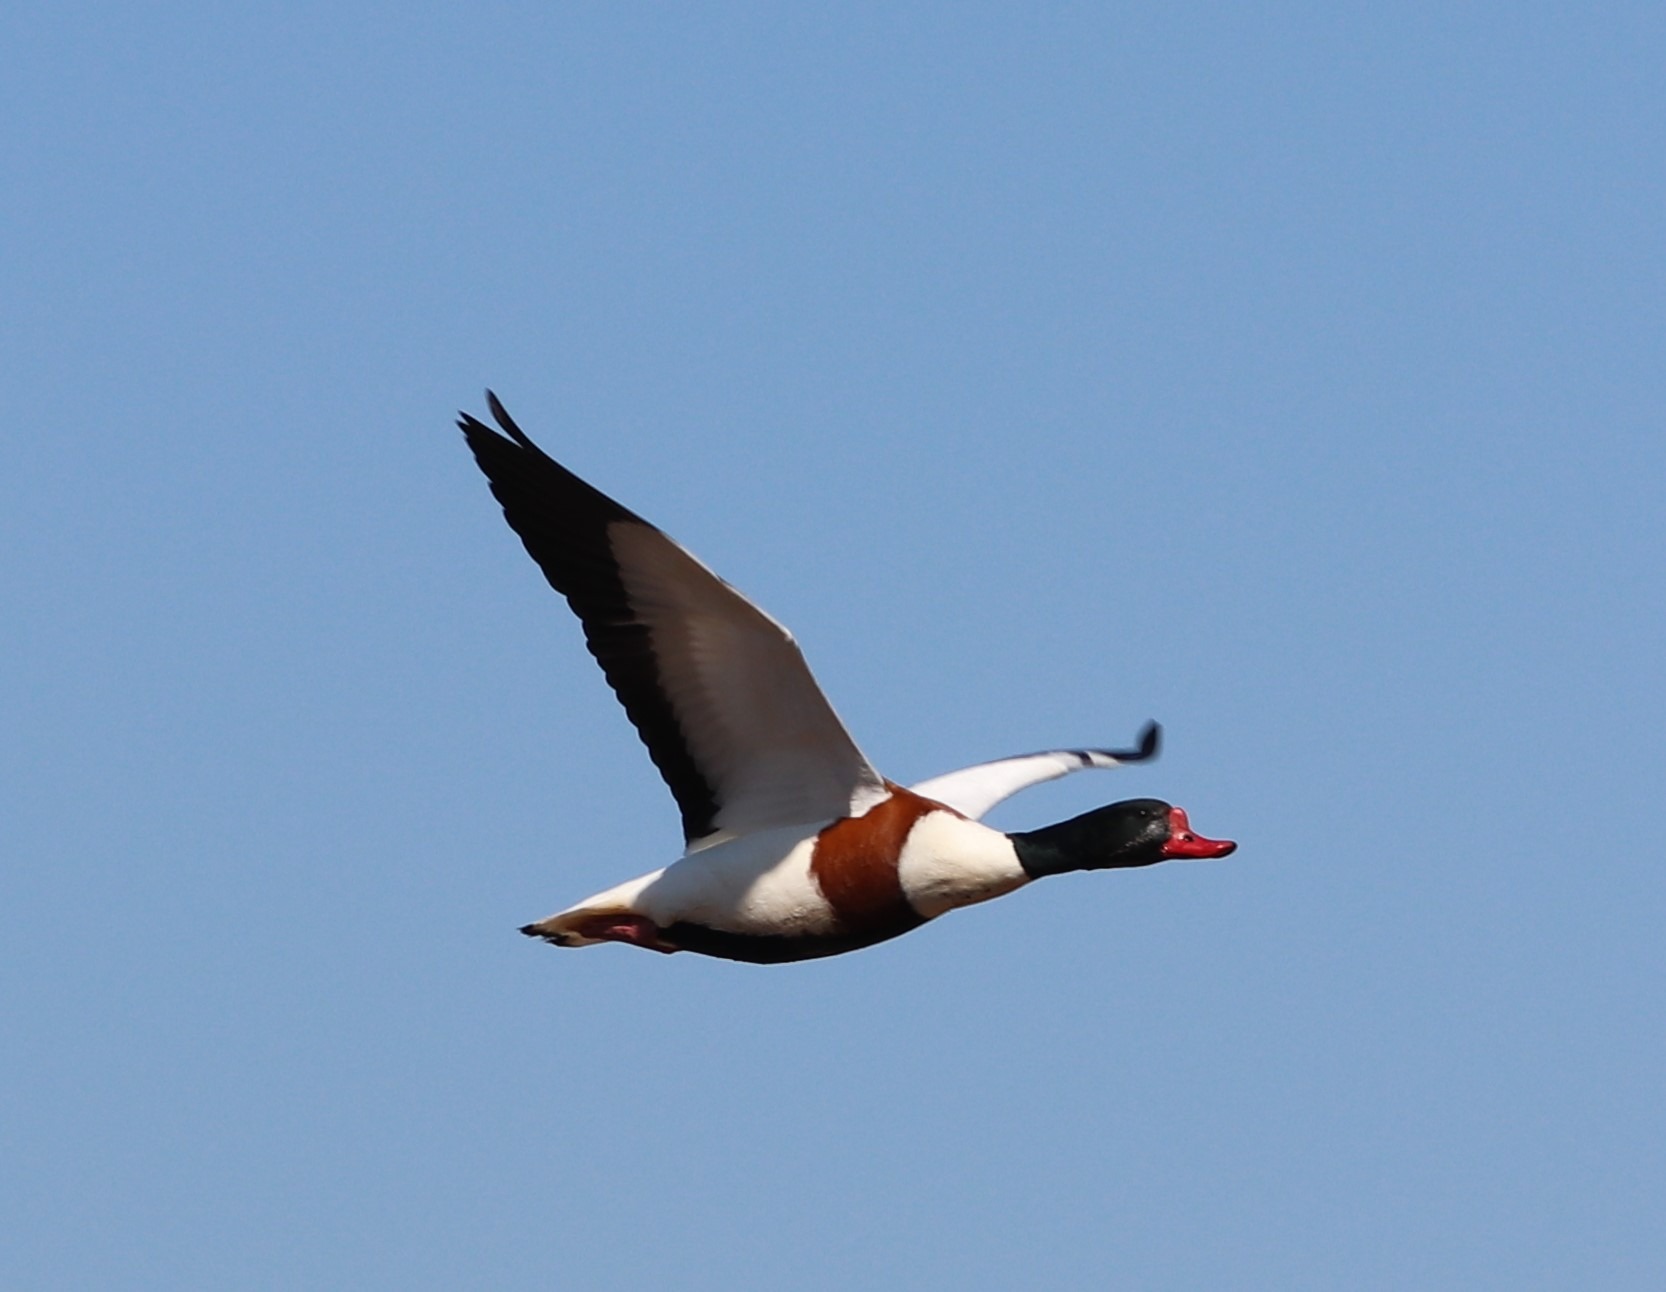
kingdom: Animalia
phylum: Chordata
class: Aves
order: Anseriformes
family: Anatidae
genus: Tadorna
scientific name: Tadorna tadorna
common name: Gravand
